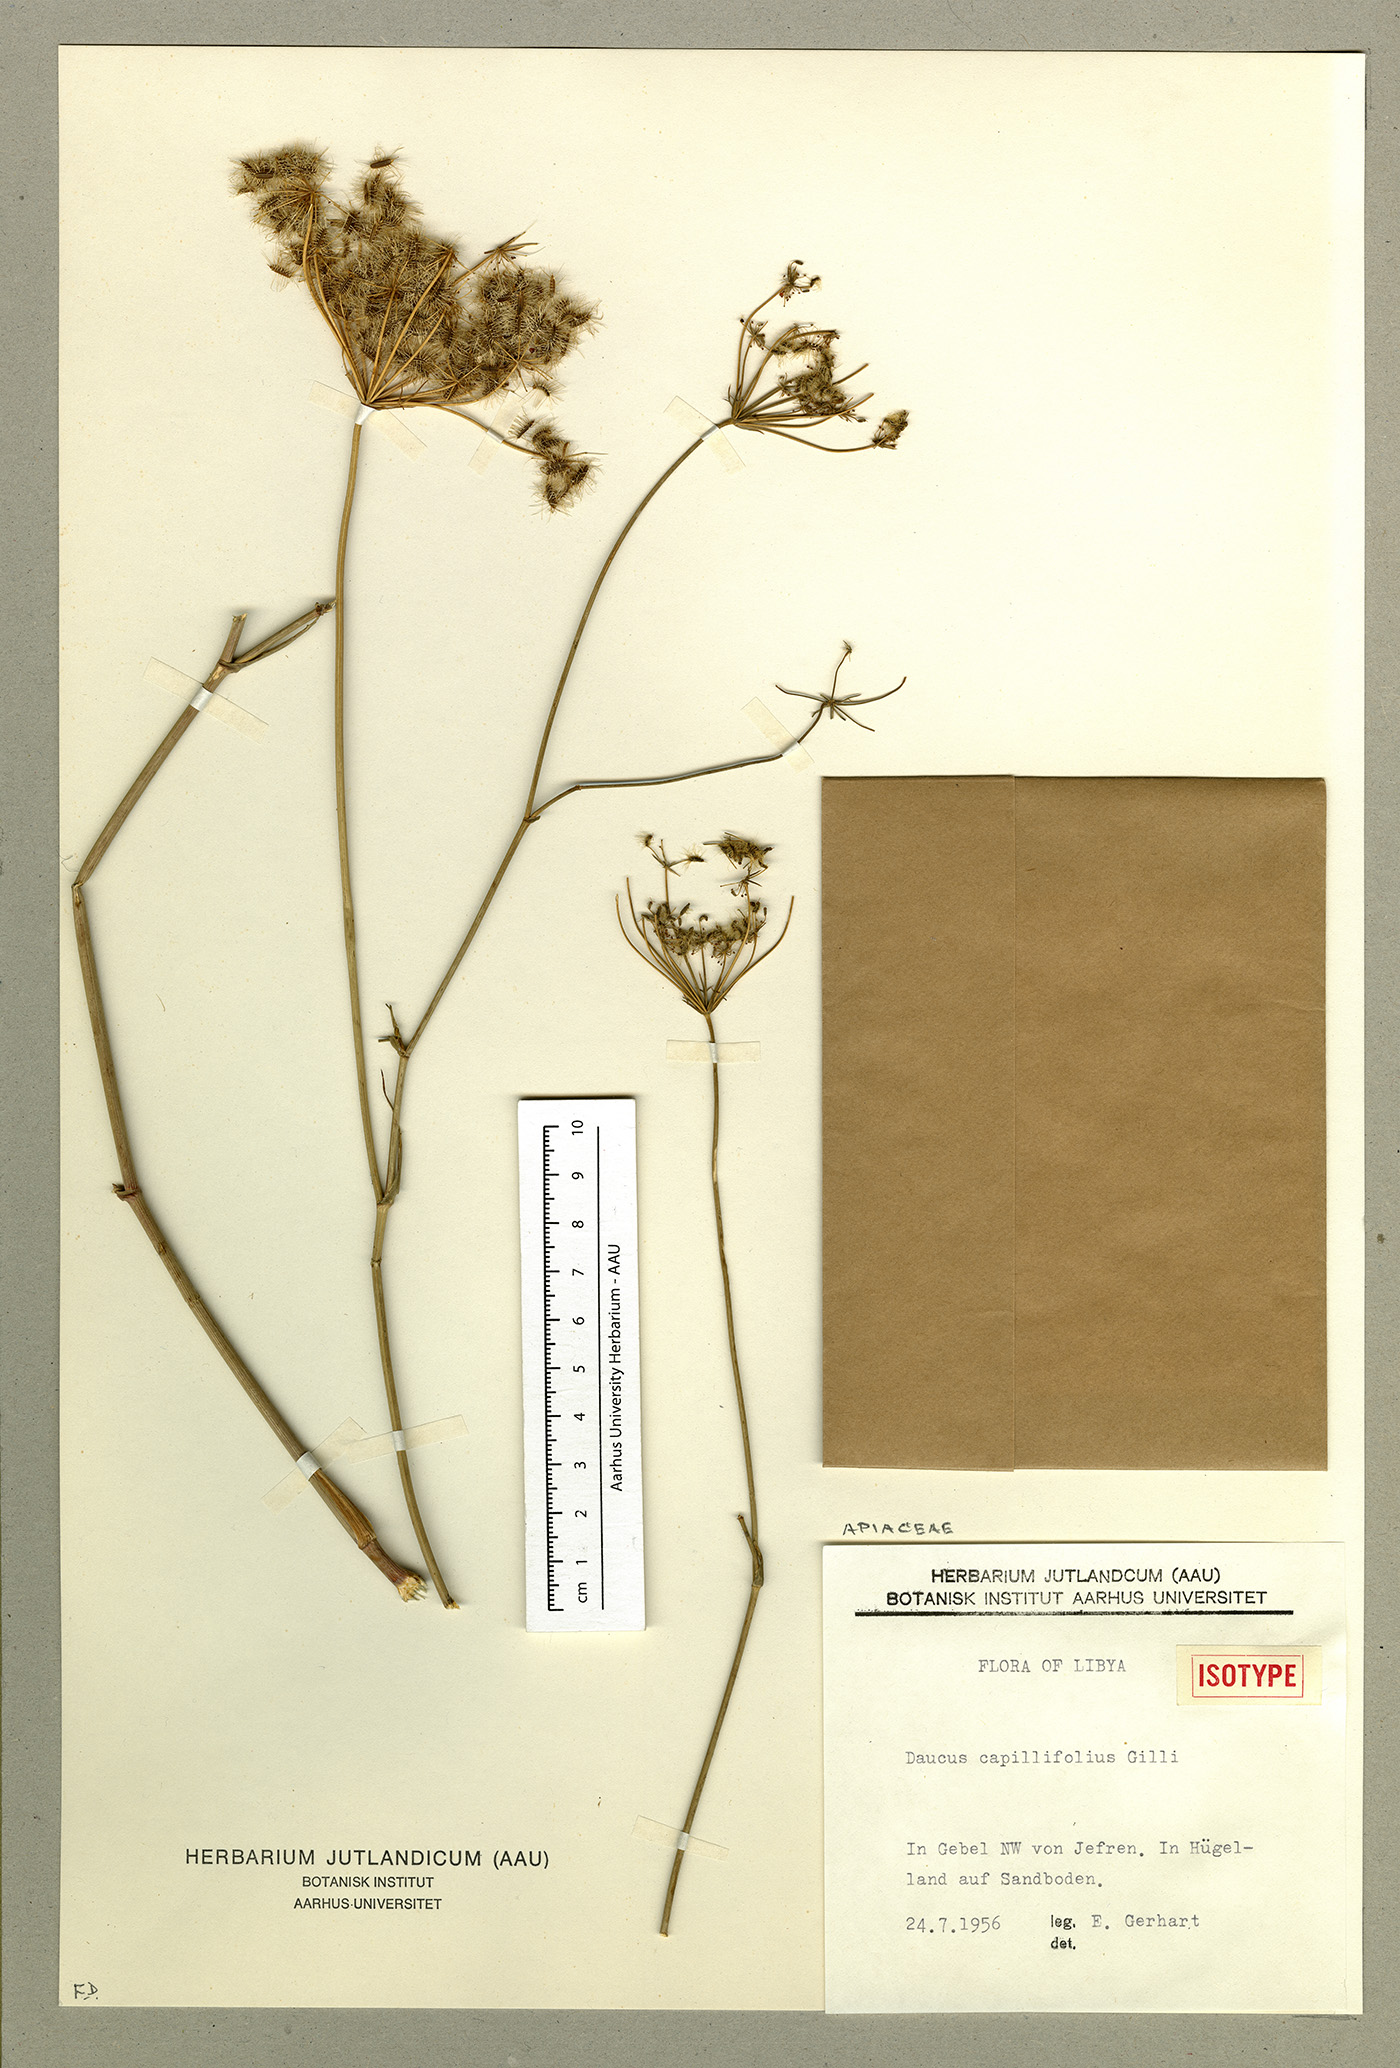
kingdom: Plantae
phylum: Tracheophyta
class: Magnoliopsida
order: Apiales
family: Apiaceae
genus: Daucus
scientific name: Daucus carota
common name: Wild carrot
